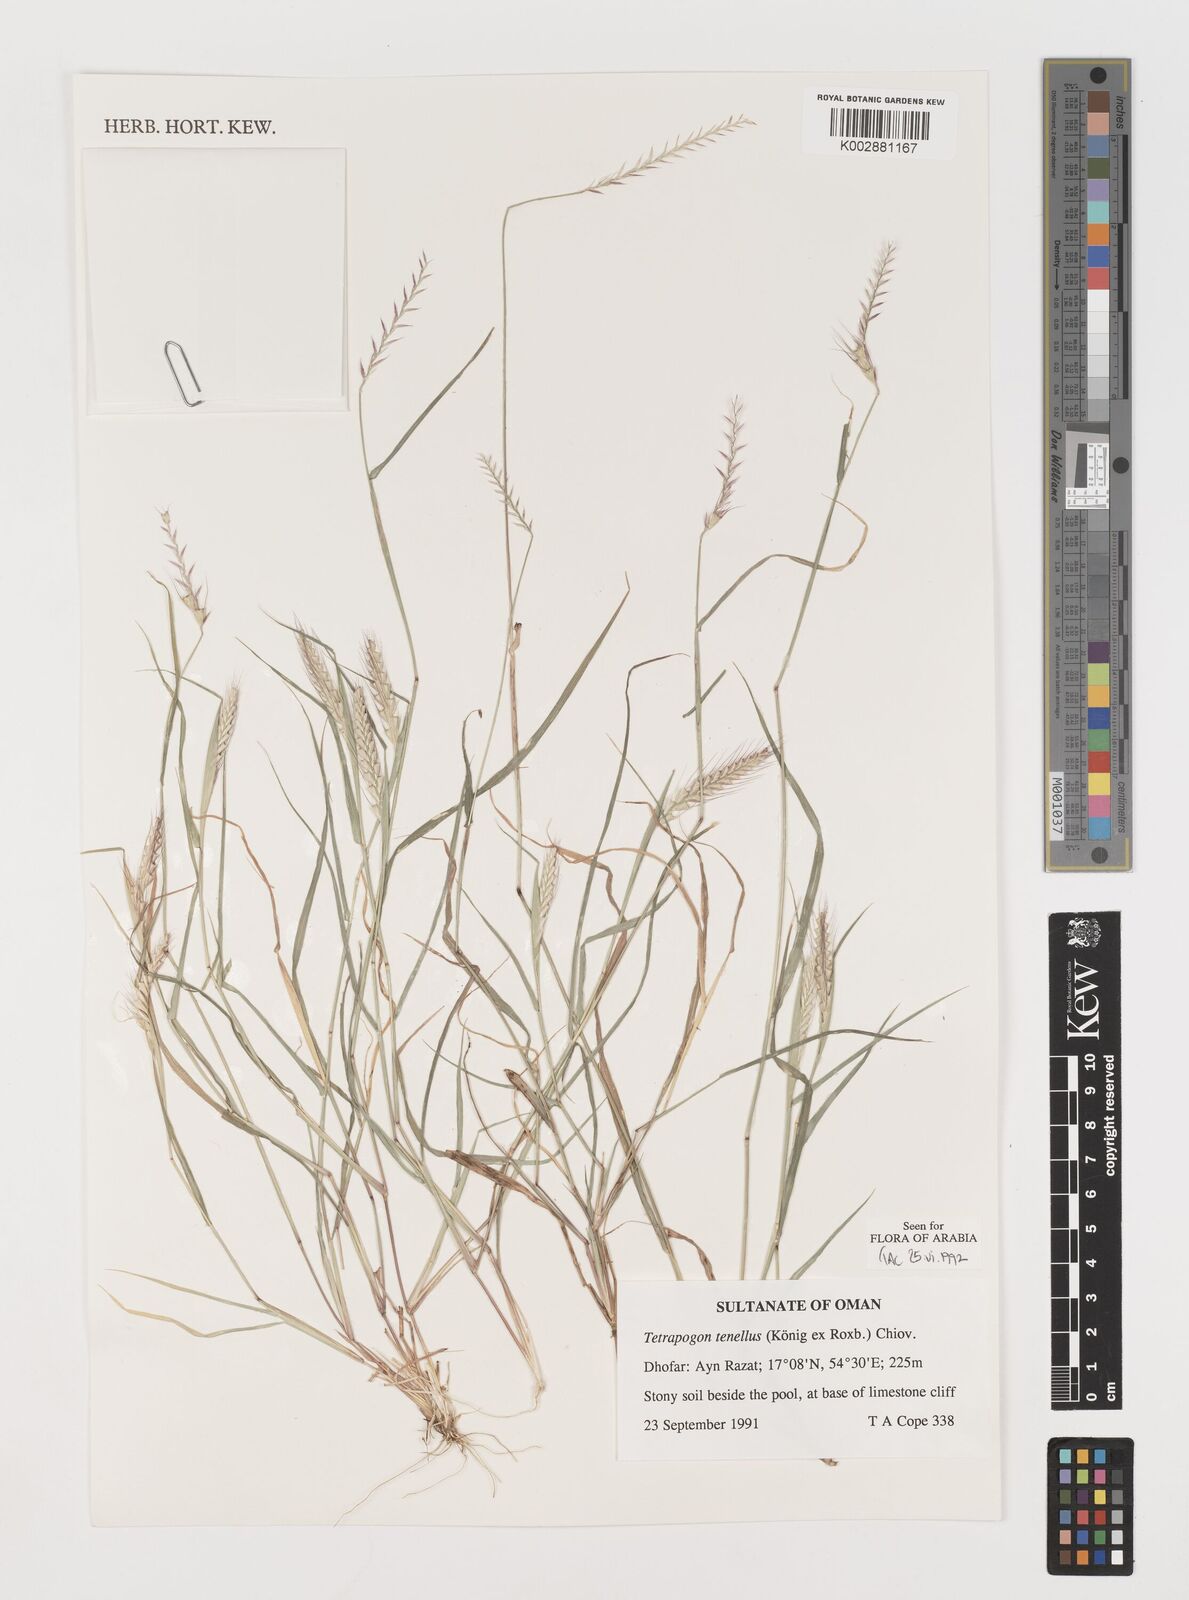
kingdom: Plantae
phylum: Tracheophyta
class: Liliopsida
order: Poales
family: Poaceae
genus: Tetrapogon
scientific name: Tetrapogon tenellus
